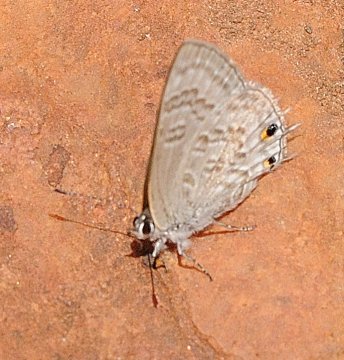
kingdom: Animalia
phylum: Arthropoda
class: Insecta
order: Lepidoptera
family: Lycaenidae
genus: Anthene
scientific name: Anthene definita
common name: Common Ciliate Blue
